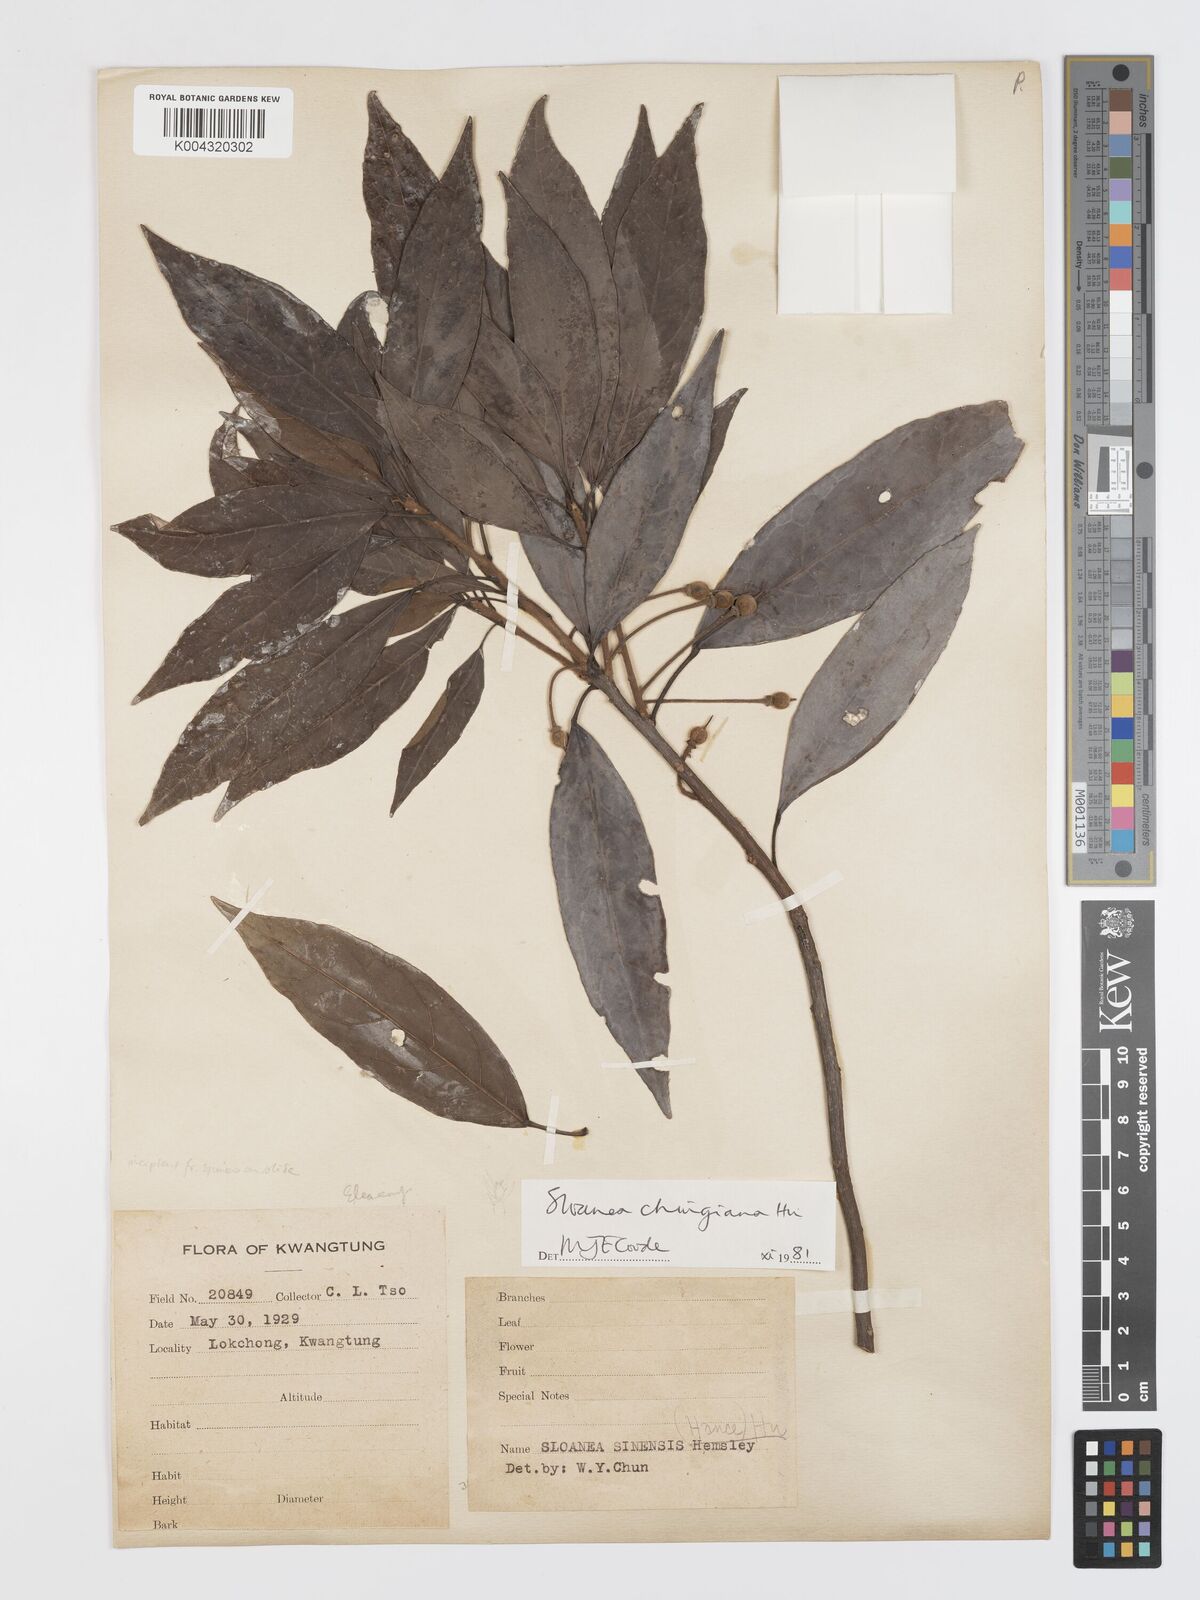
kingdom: Plantae
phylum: Tracheophyta
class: Magnoliopsida
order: Oxalidales
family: Elaeocarpaceae
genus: Sloanea
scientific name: Sloanea chingiana
